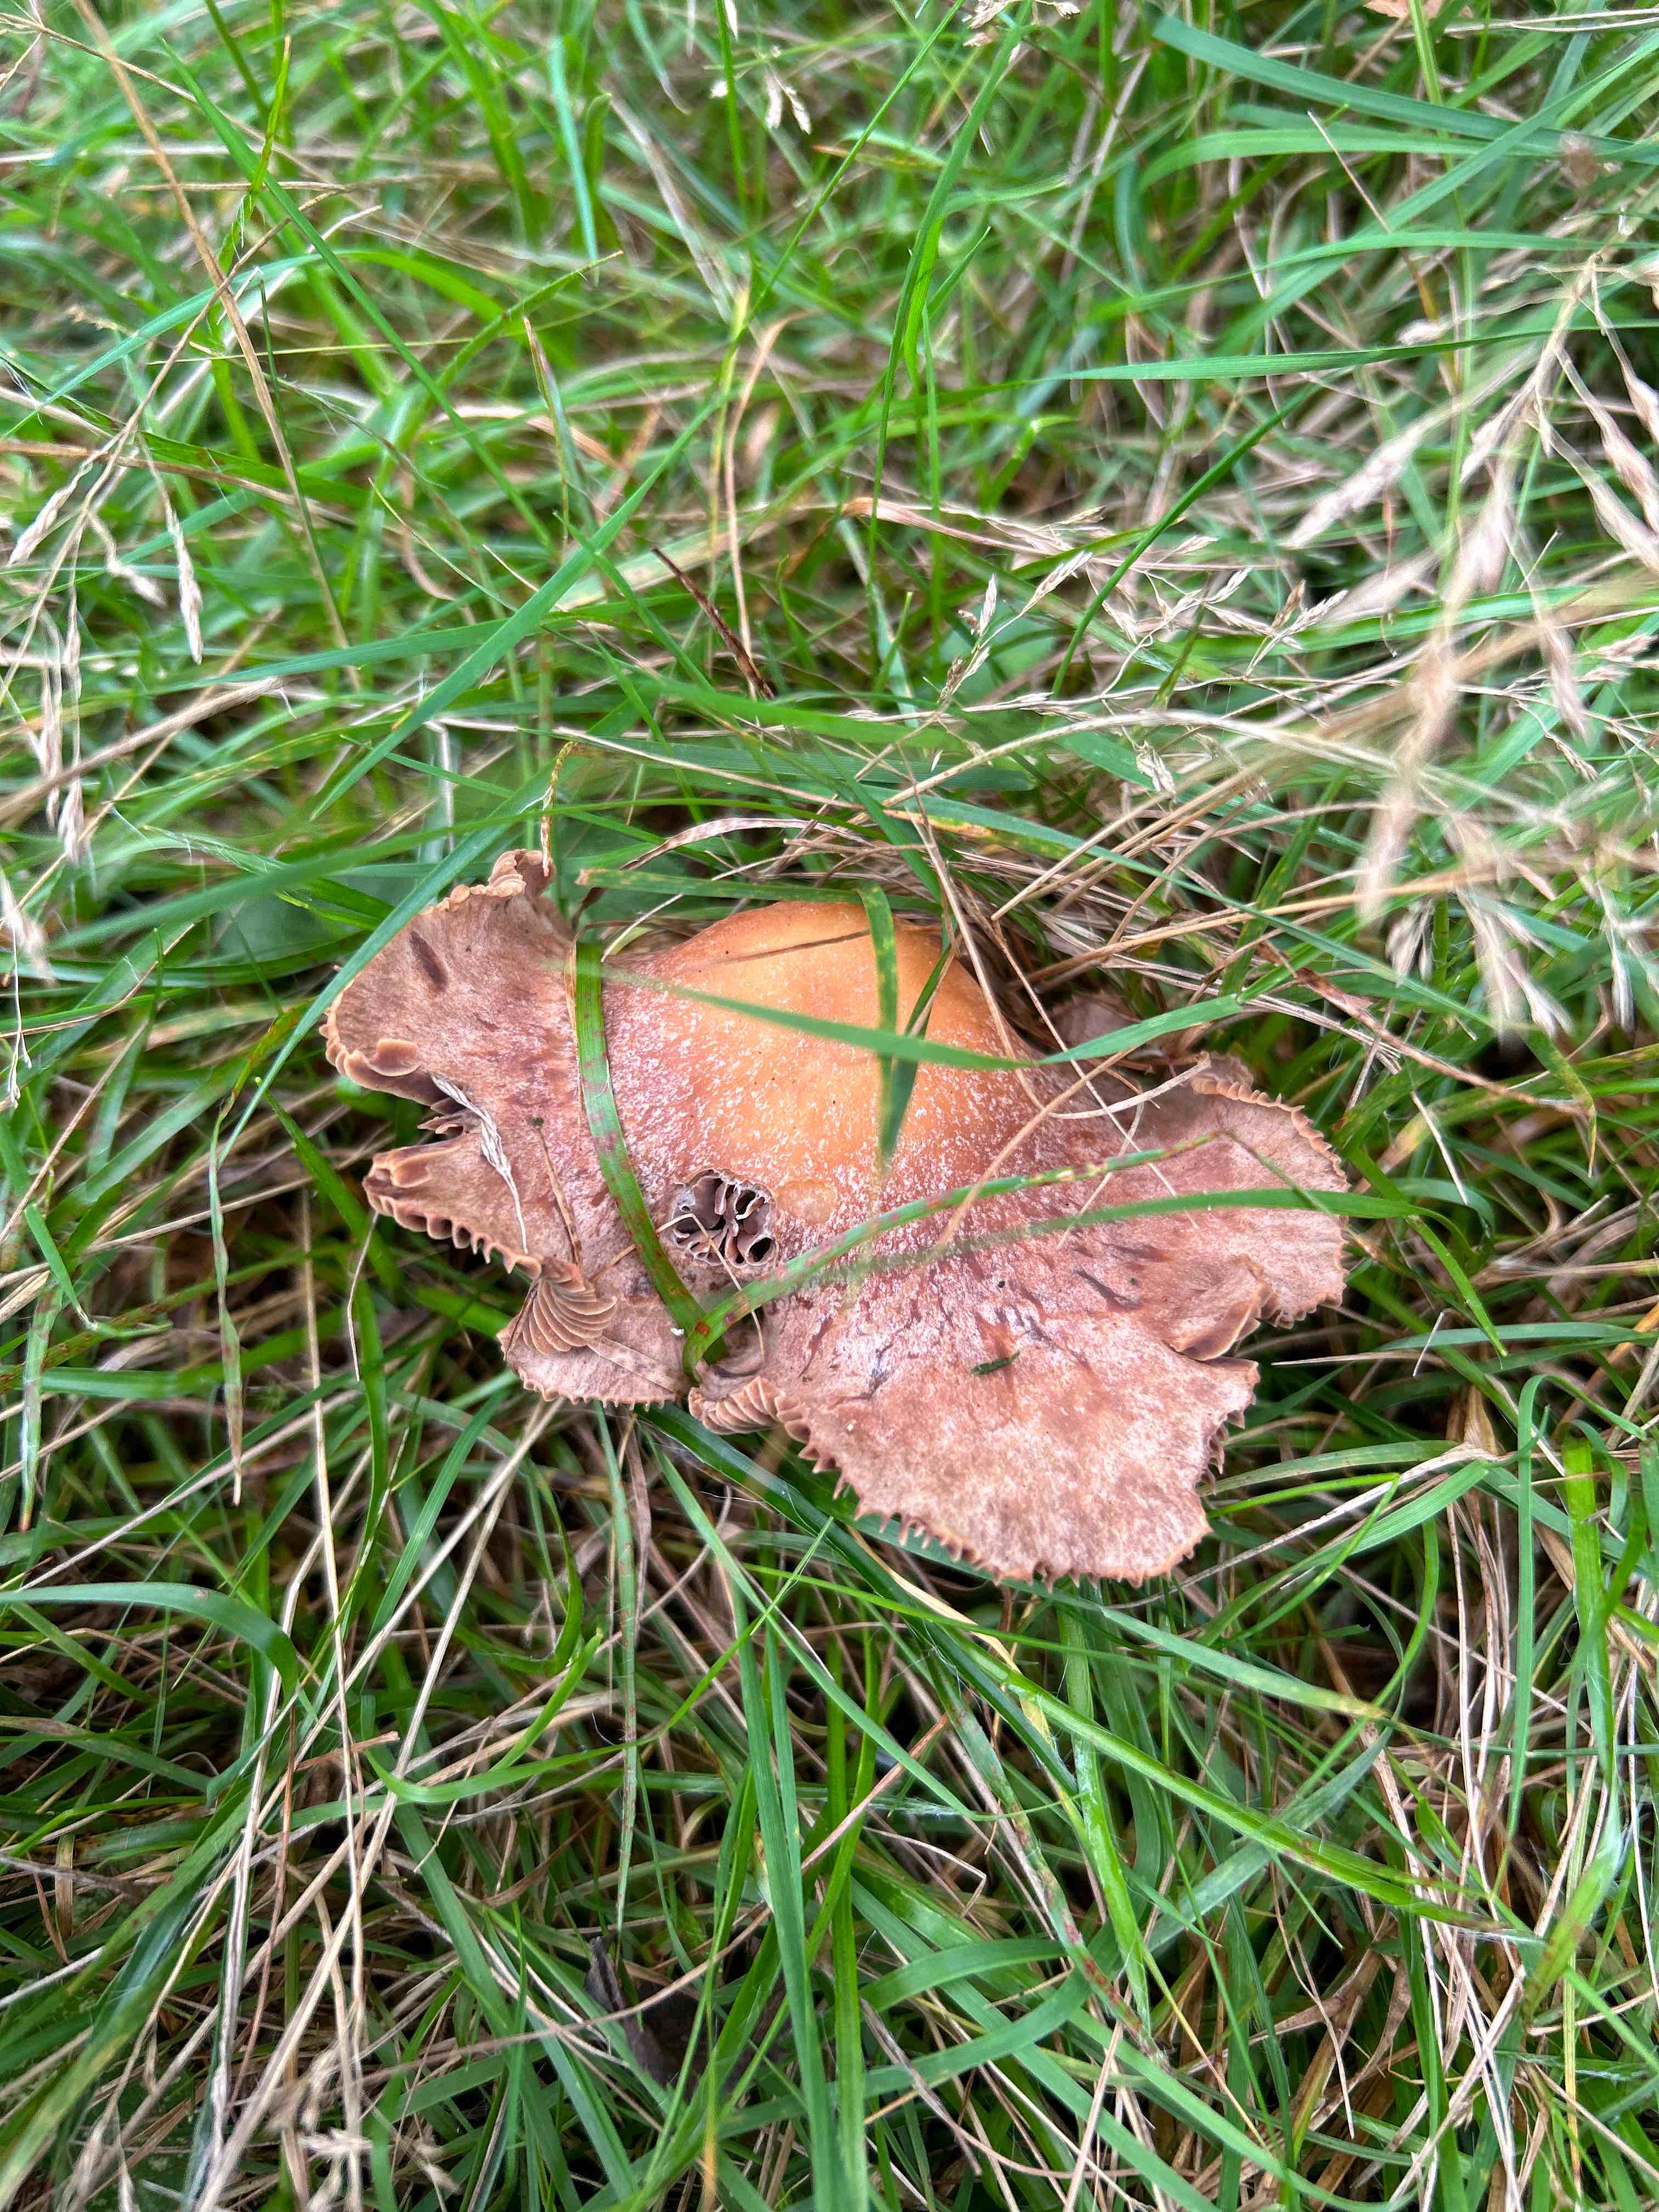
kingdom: Fungi
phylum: Basidiomycota
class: Agaricomycetes
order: Agaricales
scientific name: Agaricales
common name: champignonordenen
